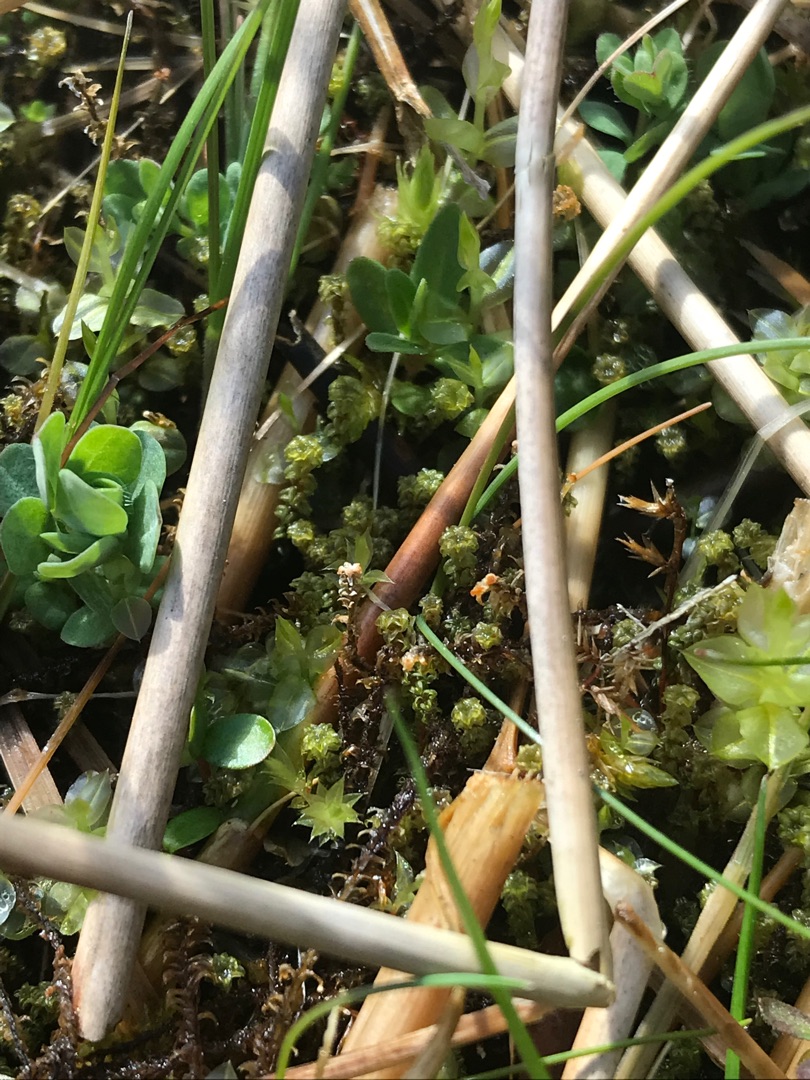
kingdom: Plantae
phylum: Bryophyta
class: Bryopsida
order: Splachnales
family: Meesiaceae
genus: Paludella
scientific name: Paludella squarrosa
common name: Almindelig piberensermos
